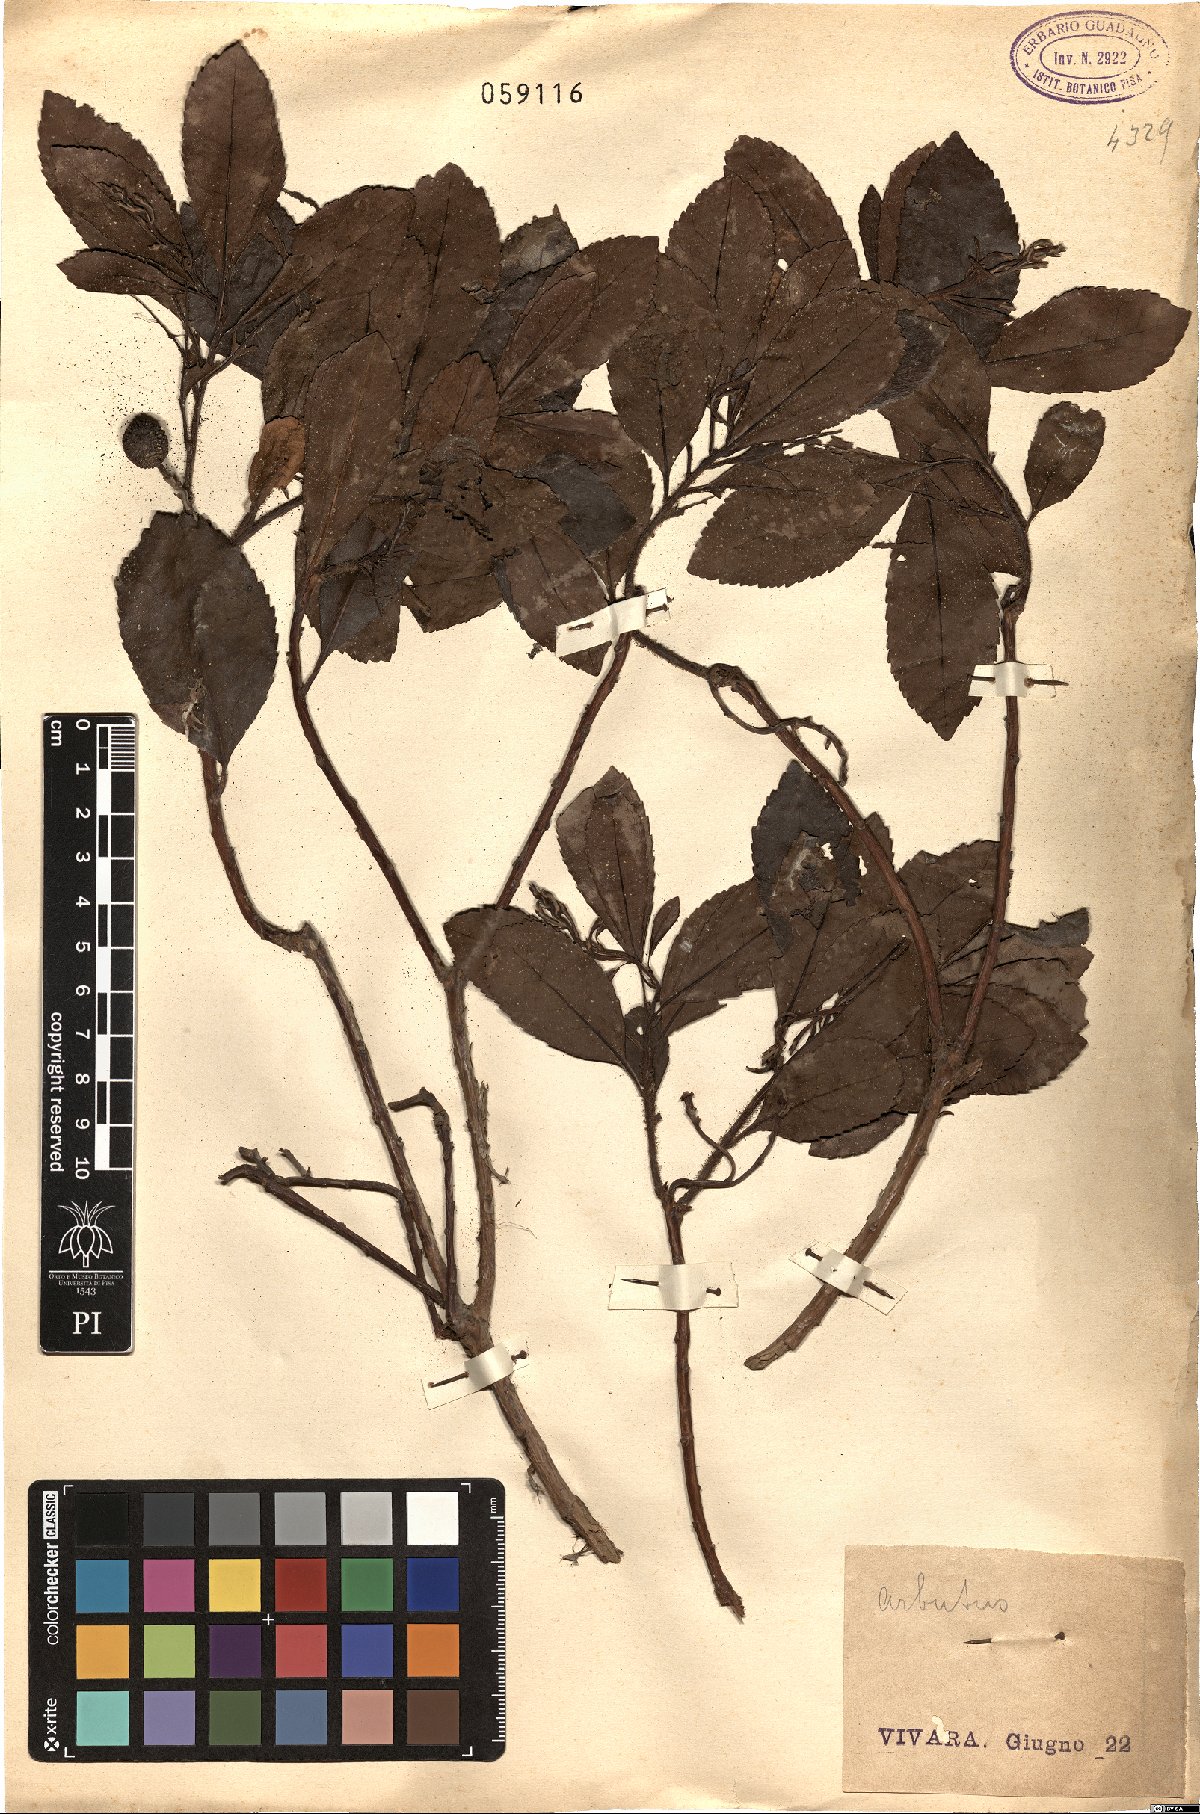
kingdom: Plantae
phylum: Tracheophyta
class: Magnoliopsida
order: Ericales
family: Ericaceae
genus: Arbutus
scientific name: Arbutus
